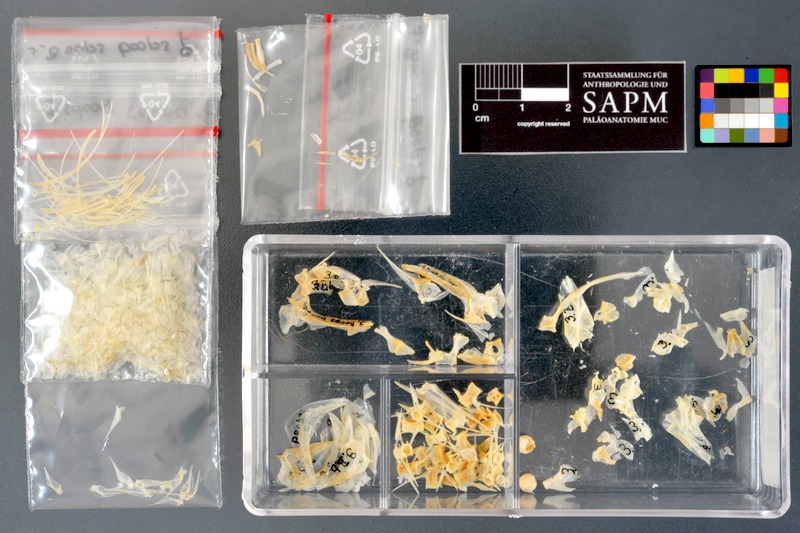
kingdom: Animalia
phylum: Chordata
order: Perciformes
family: Sparidae
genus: Boops
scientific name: Boops boops
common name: Bogue
